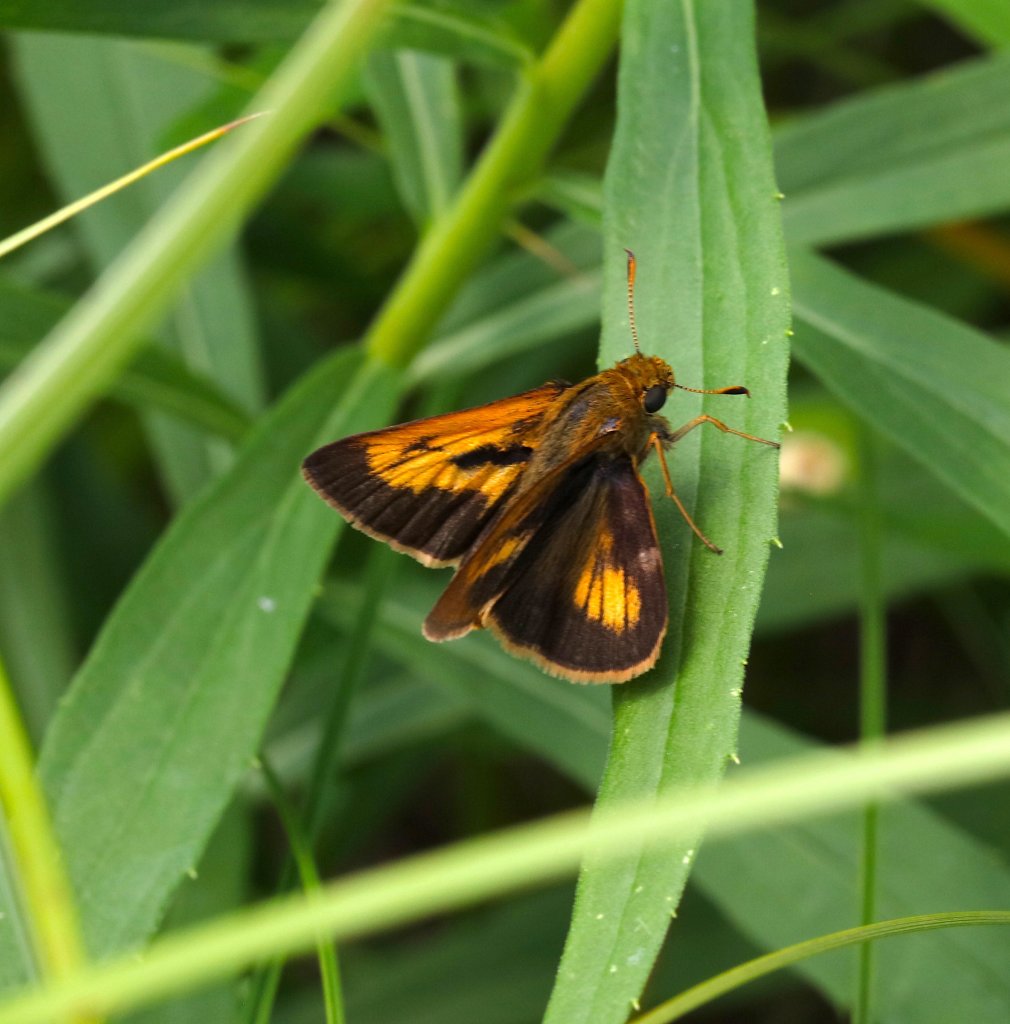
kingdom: Animalia
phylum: Arthropoda
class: Insecta
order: Lepidoptera
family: Hesperiidae
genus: Euphyes
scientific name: Euphyes conspicua
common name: Black Dash
